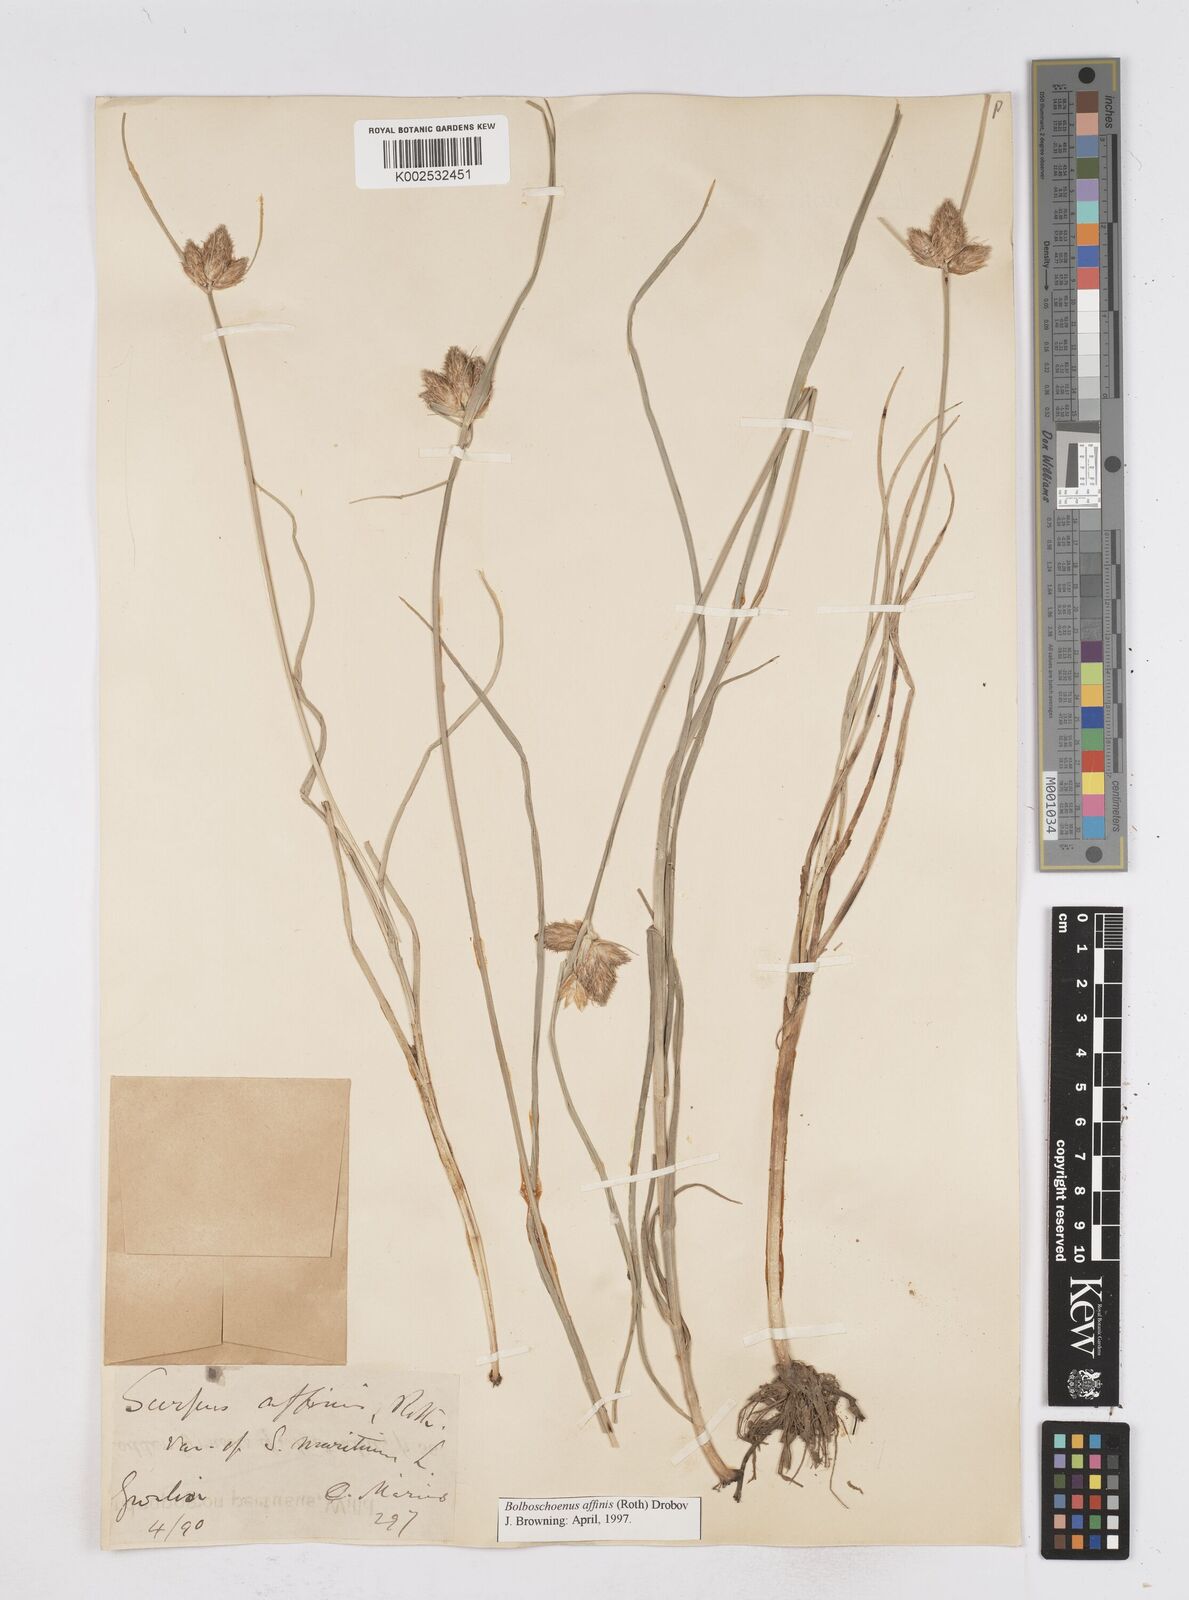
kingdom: Plantae
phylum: Tracheophyta
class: Liliopsida
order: Poales
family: Cyperaceae
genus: Bolboschoenus
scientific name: Bolboschoenus maritimus
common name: Sea club-rush
